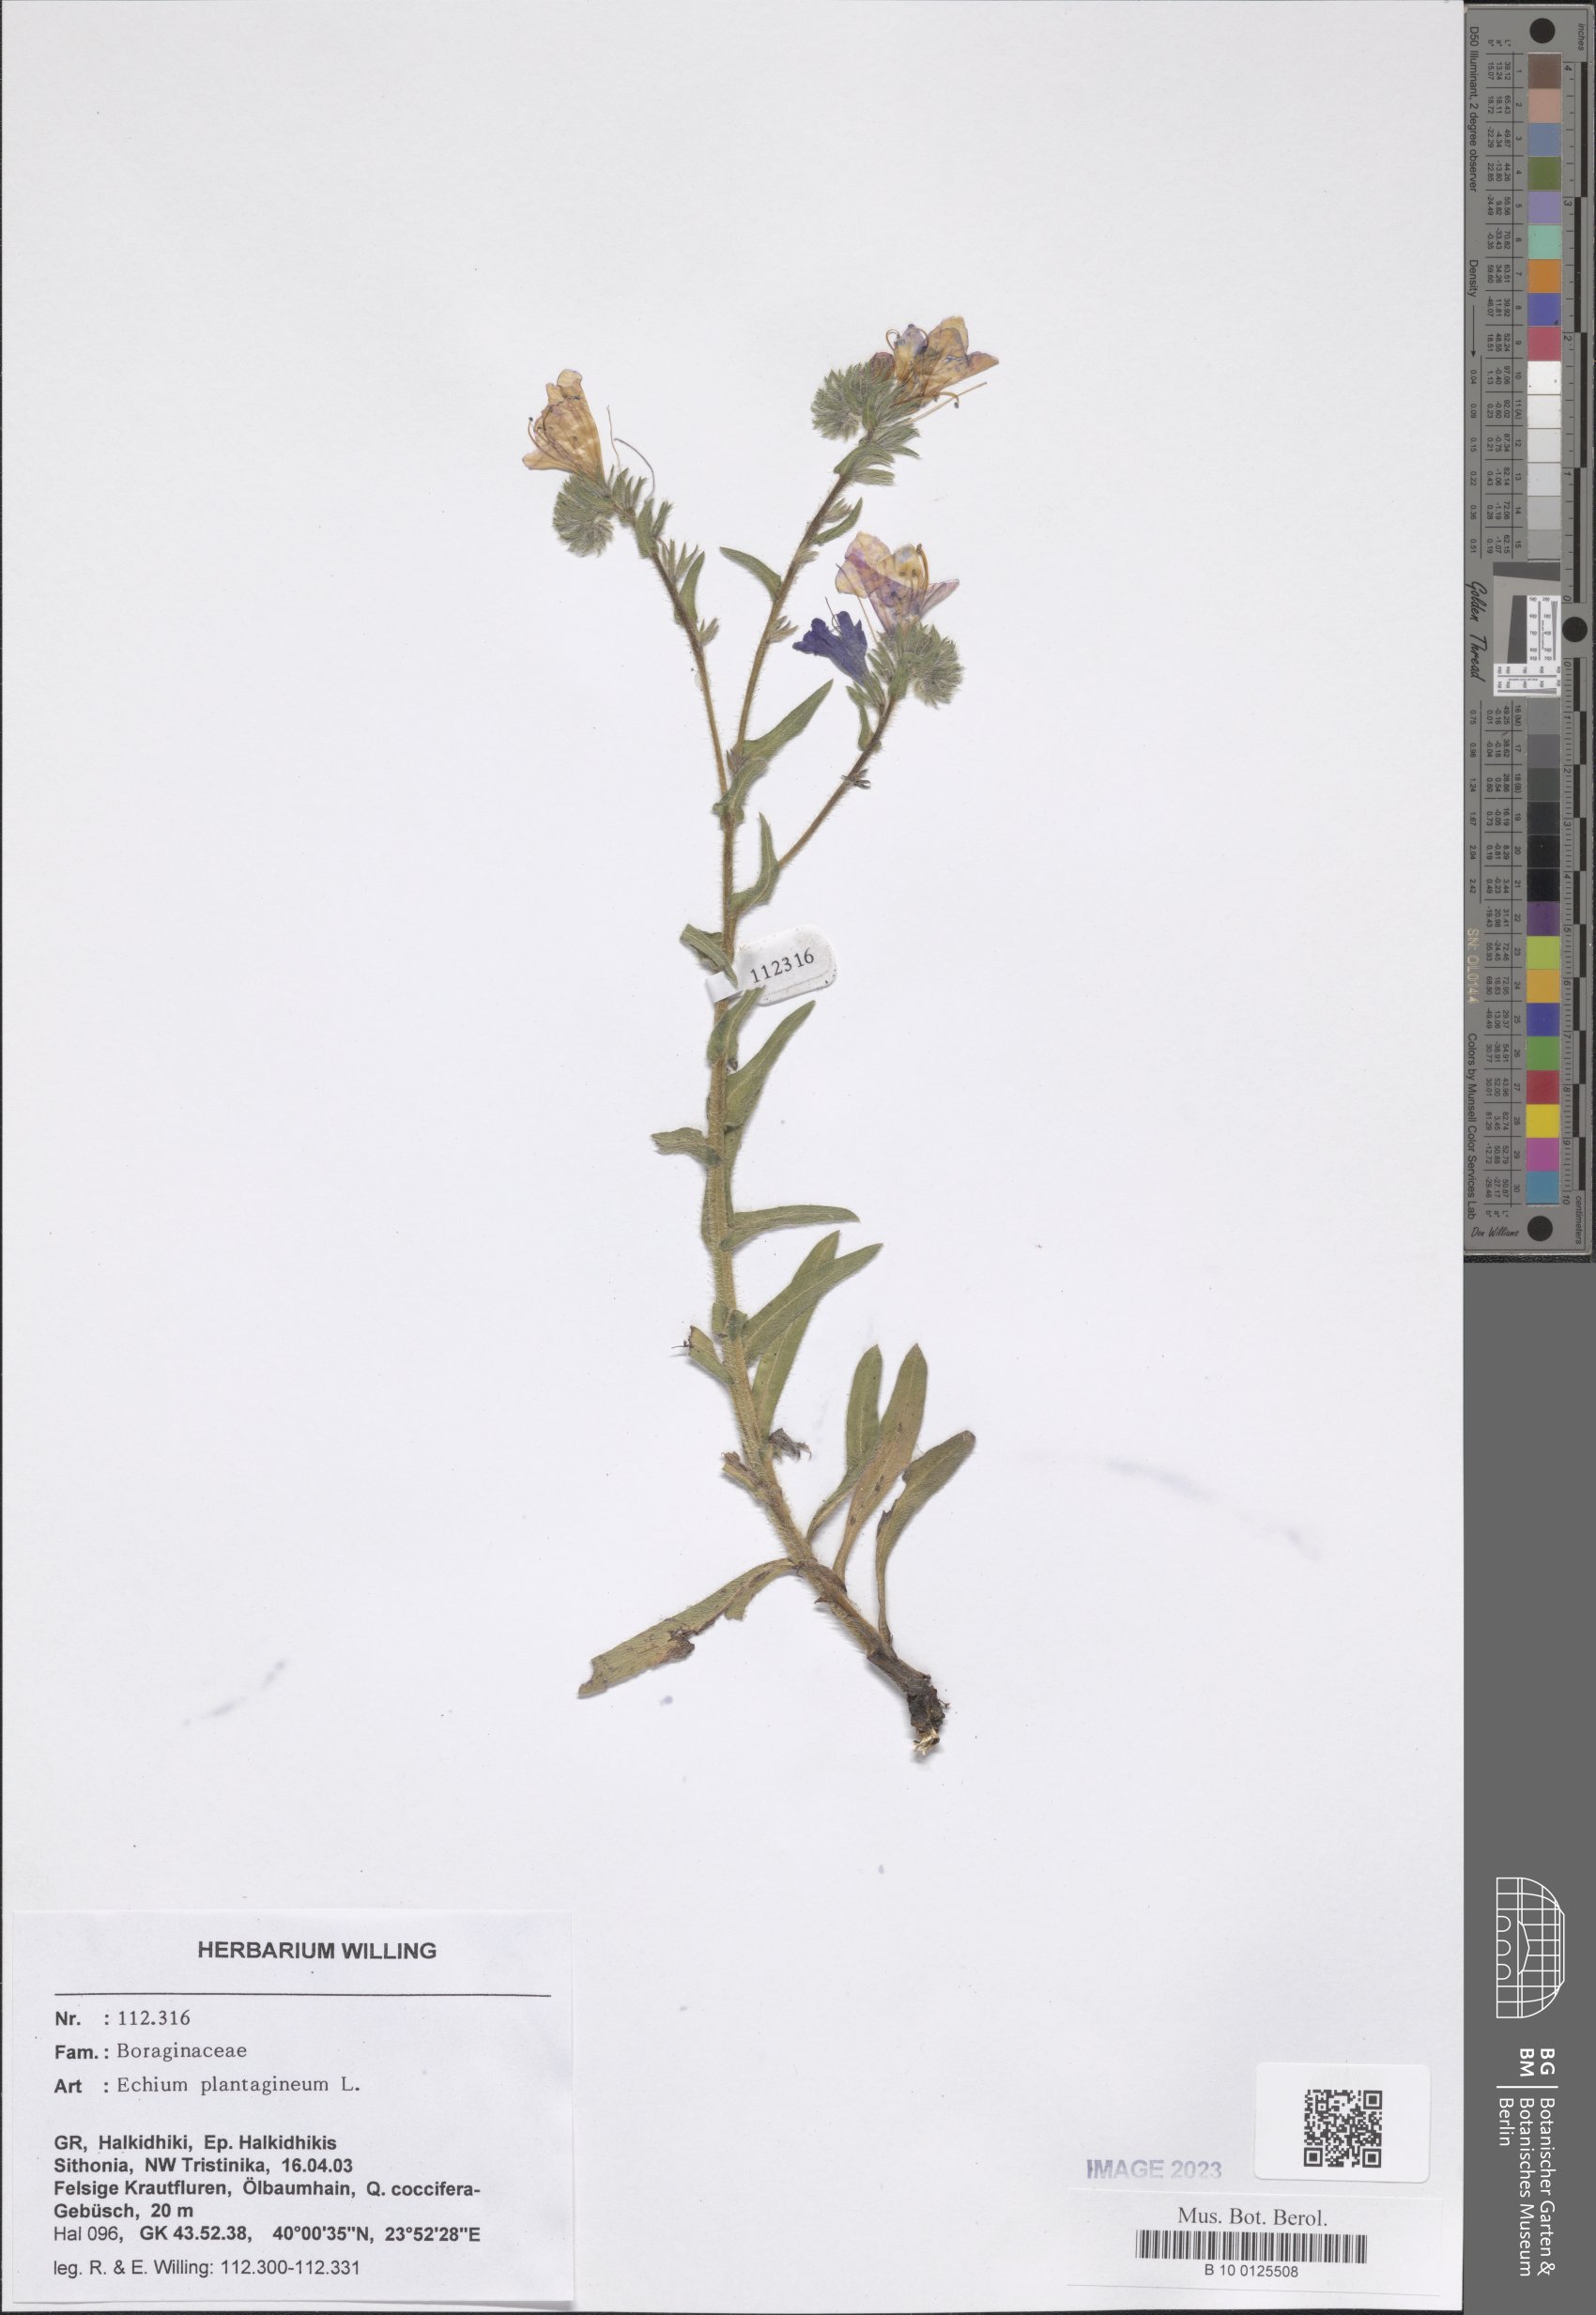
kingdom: Plantae
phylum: Tracheophyta
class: Magnoliopsida
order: Boraginales
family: Boraginaceae
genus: Echium
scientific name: Echium plantagineum
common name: Purple viper's-bugloss
